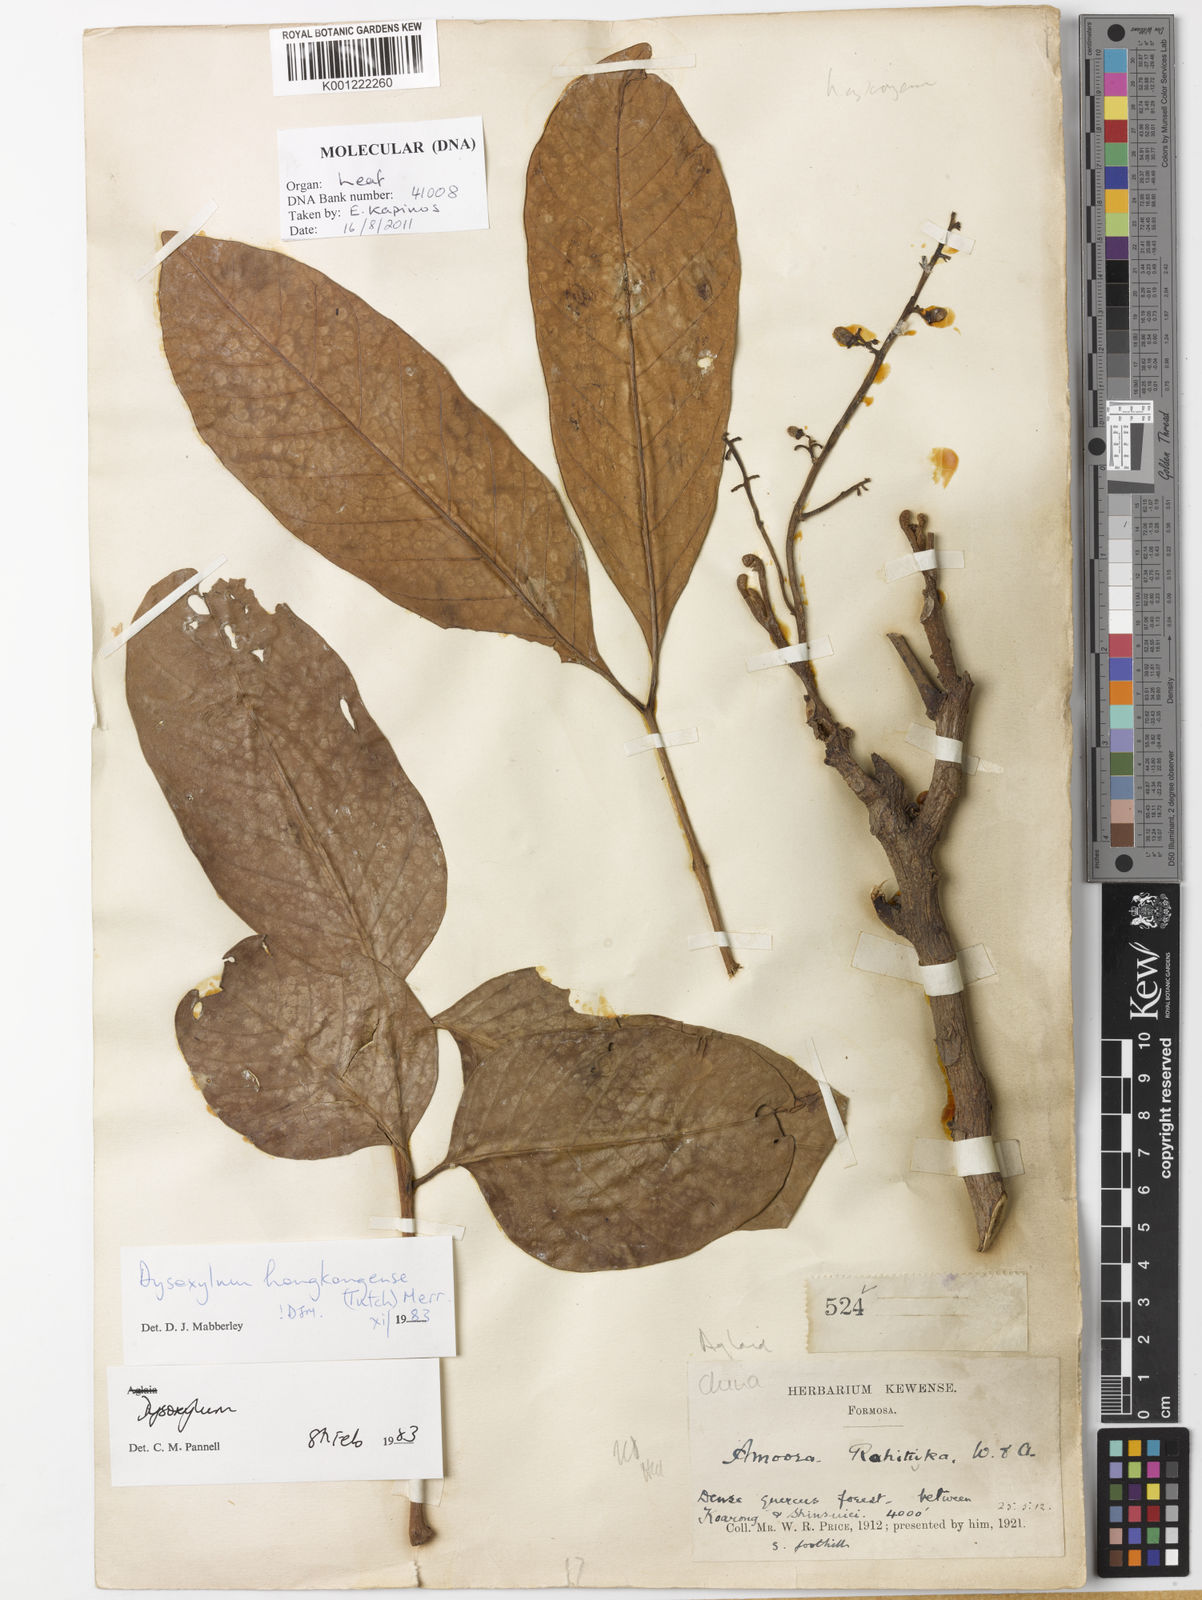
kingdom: Plantae
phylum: Tracheophyta
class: Magnoliopsida
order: Sapindales
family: Meliaceae
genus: Prasoxylon
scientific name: Prasoxylon hongkongense
